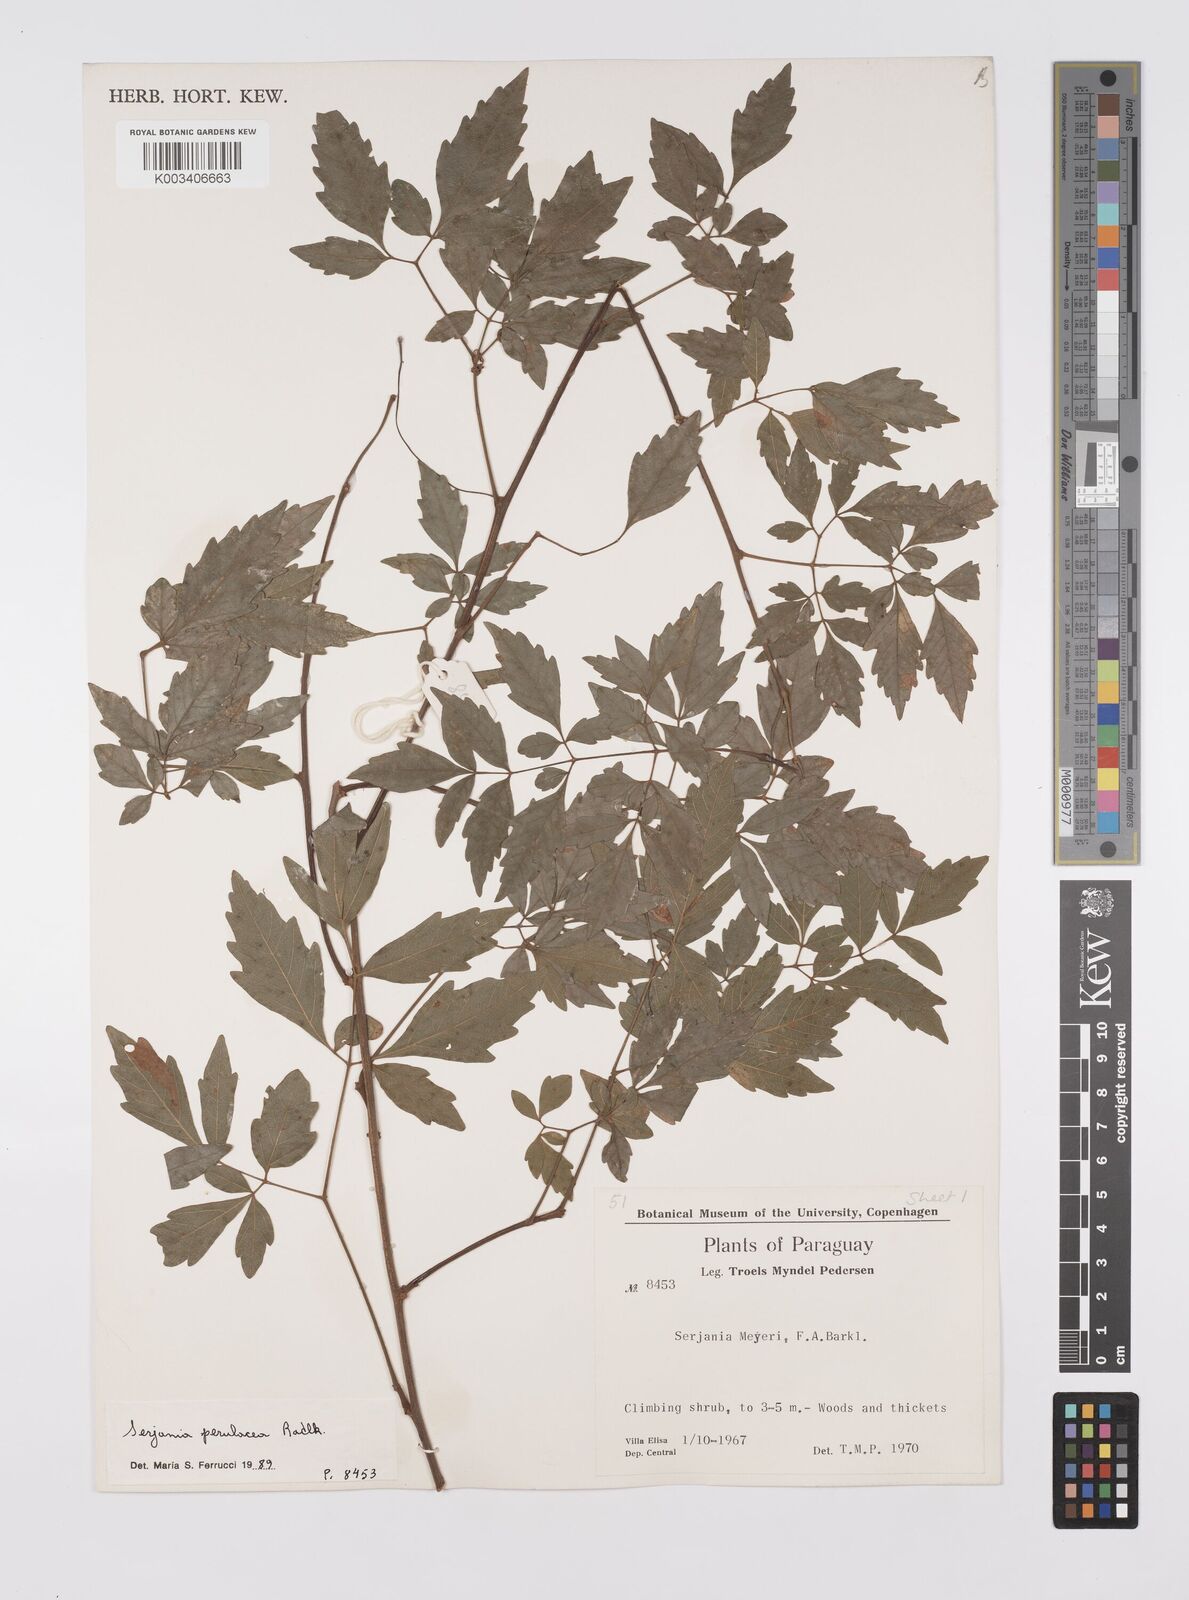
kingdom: Plantae
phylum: Tracheophyta
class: Magnoliopsida
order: Sapindales
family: Sapindaceae
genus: Serjania
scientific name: Serjania perulacea
